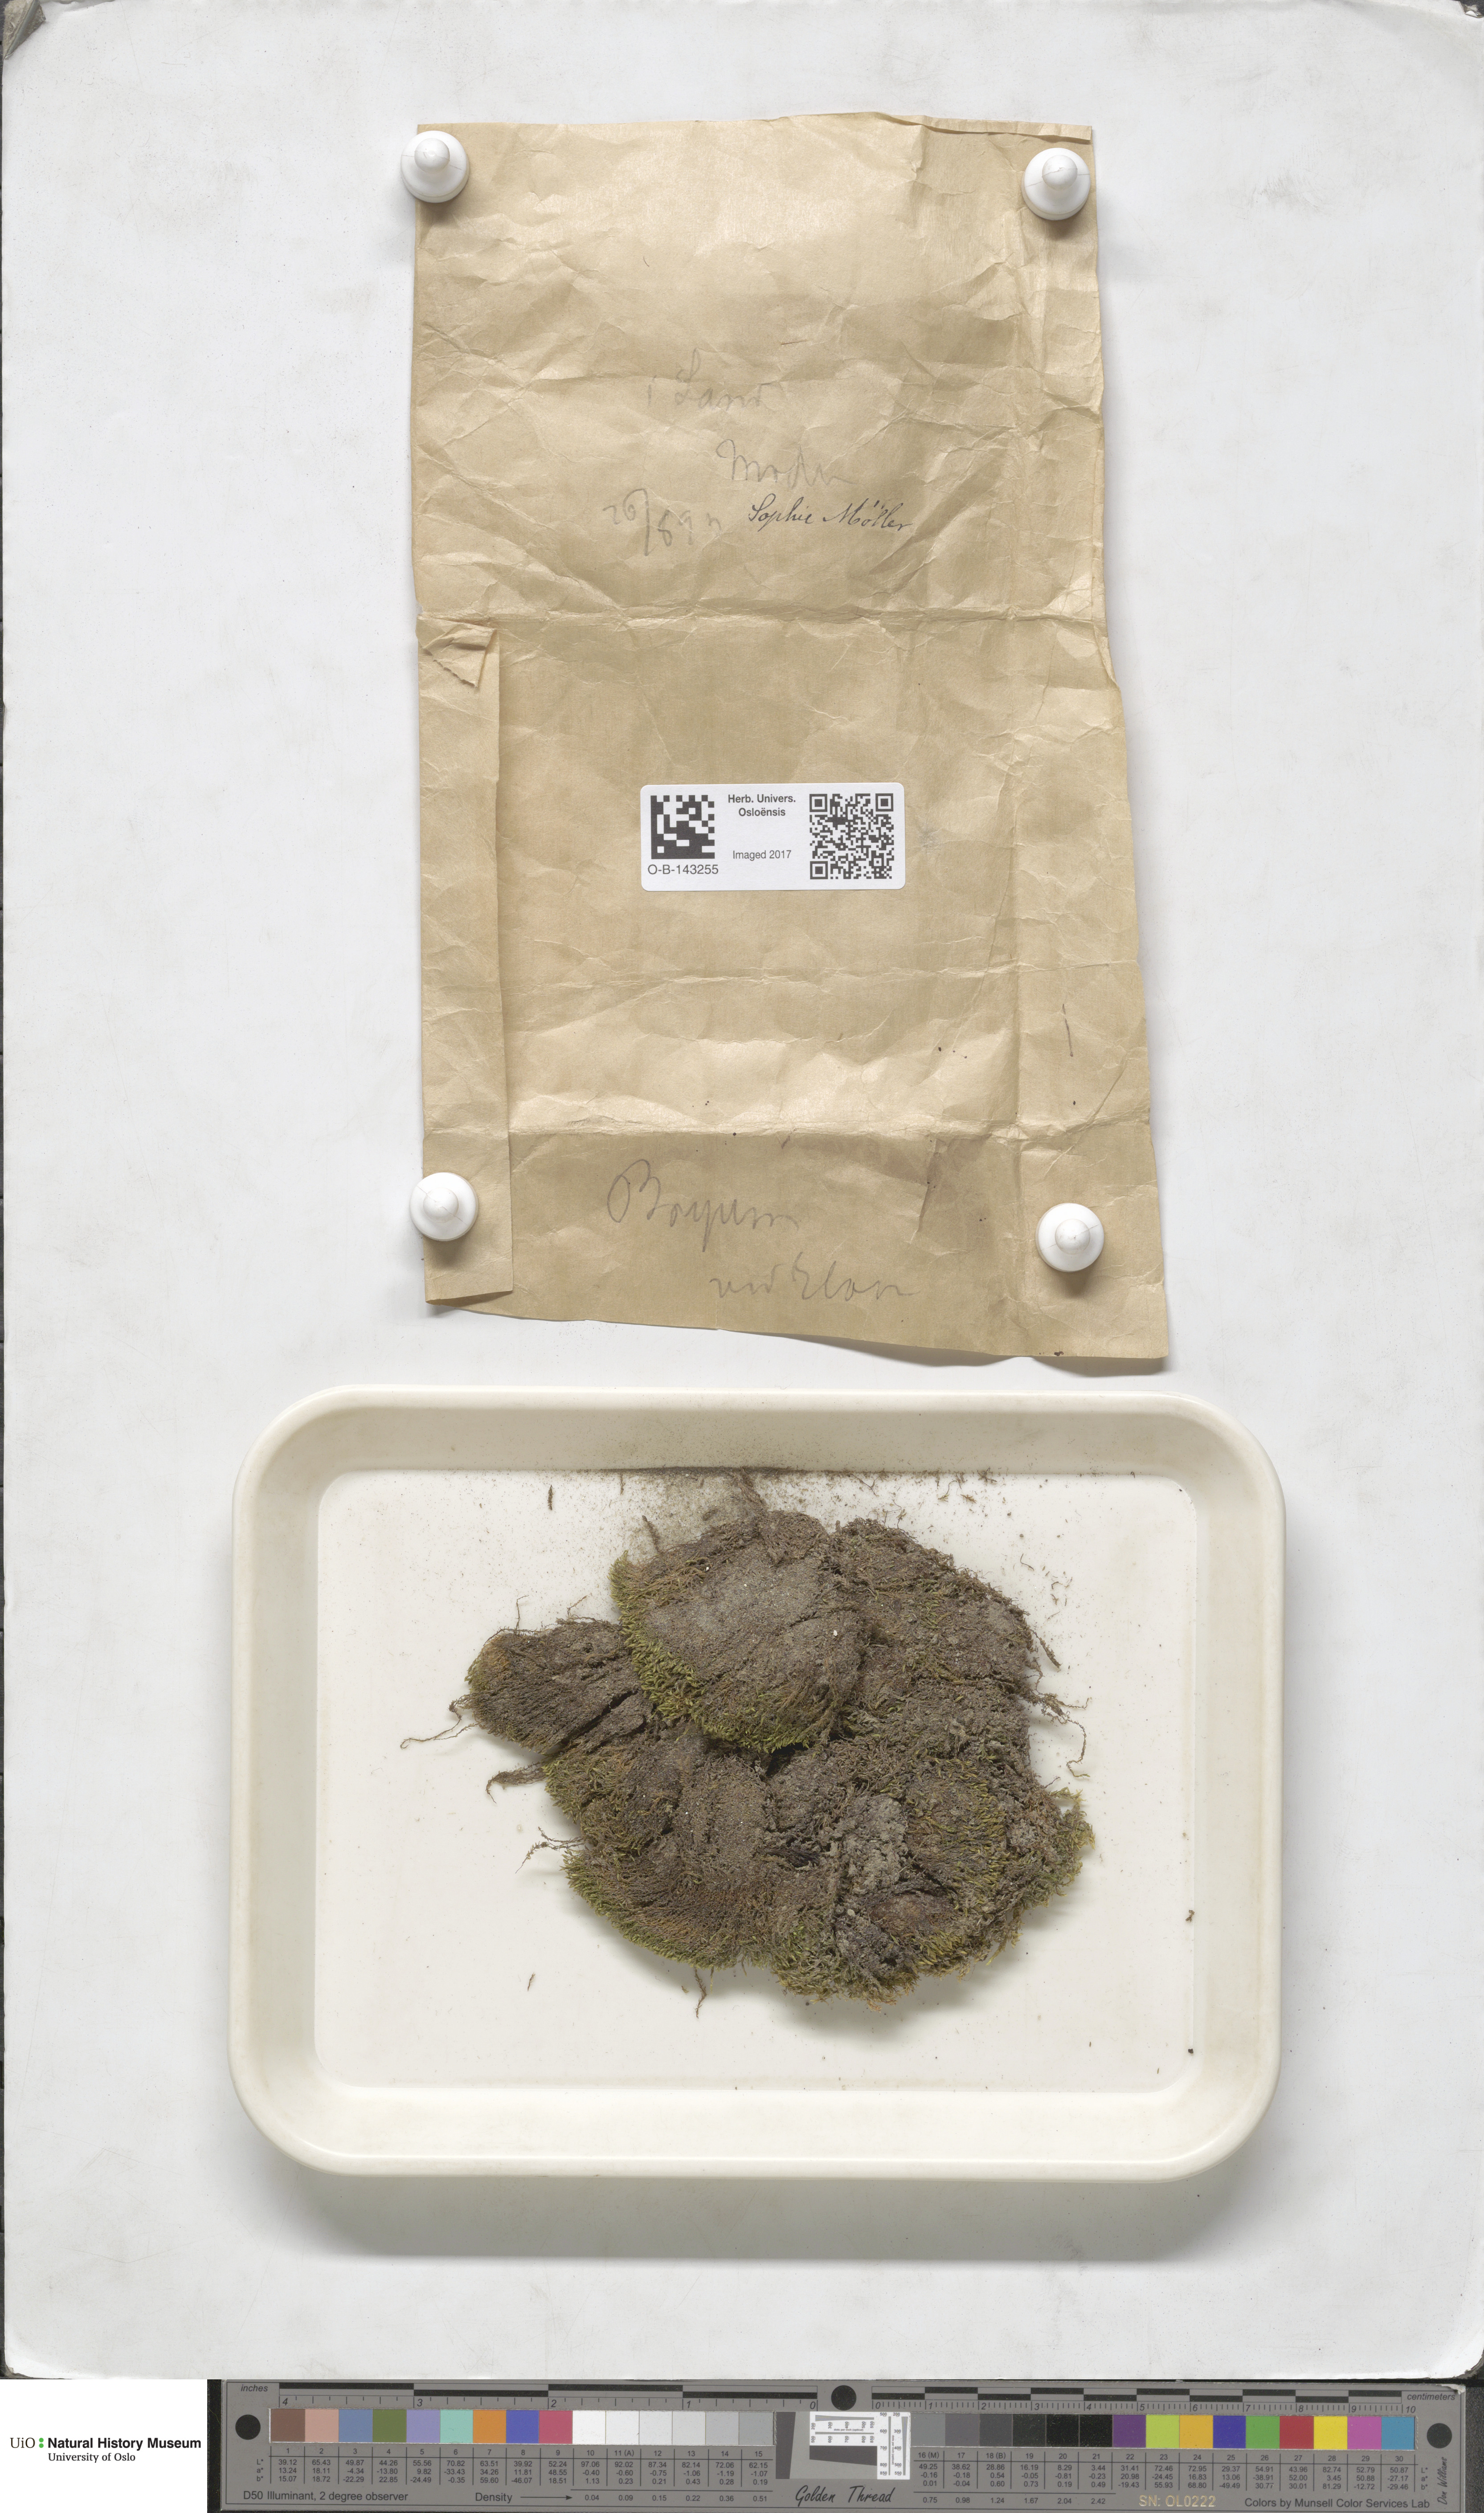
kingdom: Plantae
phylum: Bryophyta
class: Bryopsida
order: Bryales
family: Bryaceae
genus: Bryum
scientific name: Bryum
